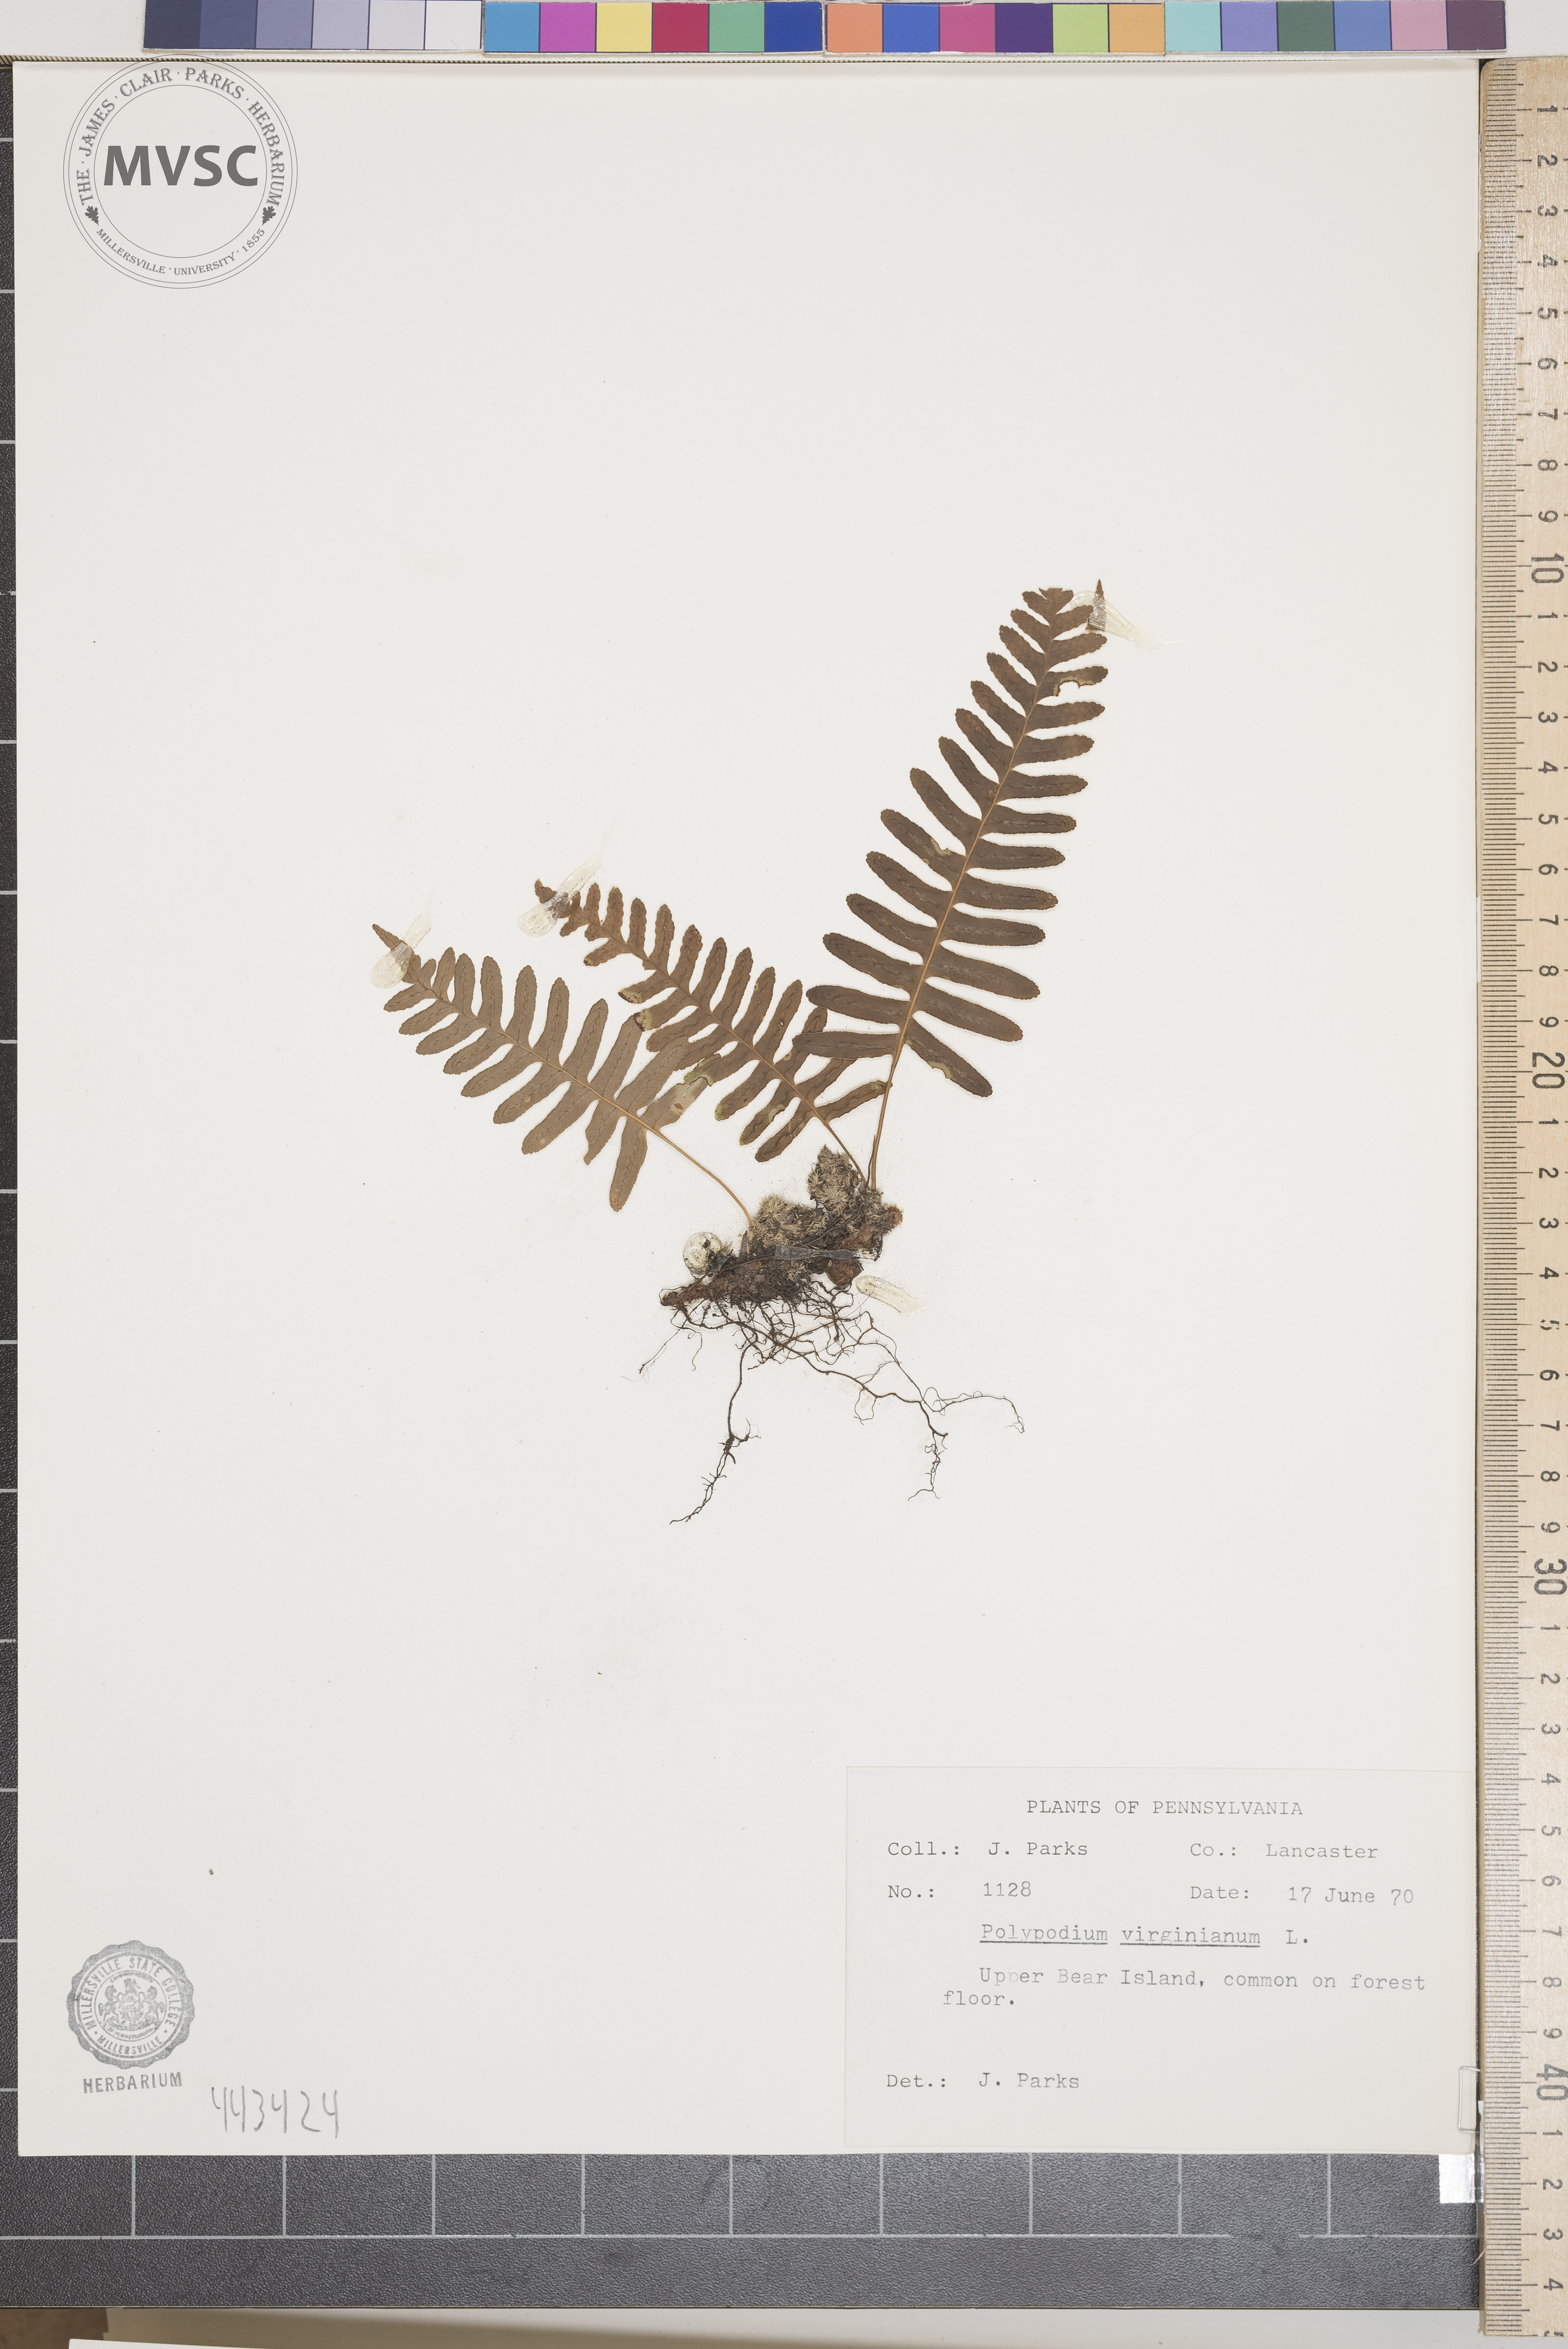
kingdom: Plantae
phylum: Tracheophyta
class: Polypodiopsida
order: Polypodiales
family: Polypodiaceae
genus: Polypodium
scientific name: Polypodium virginianum
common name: American wall fern
